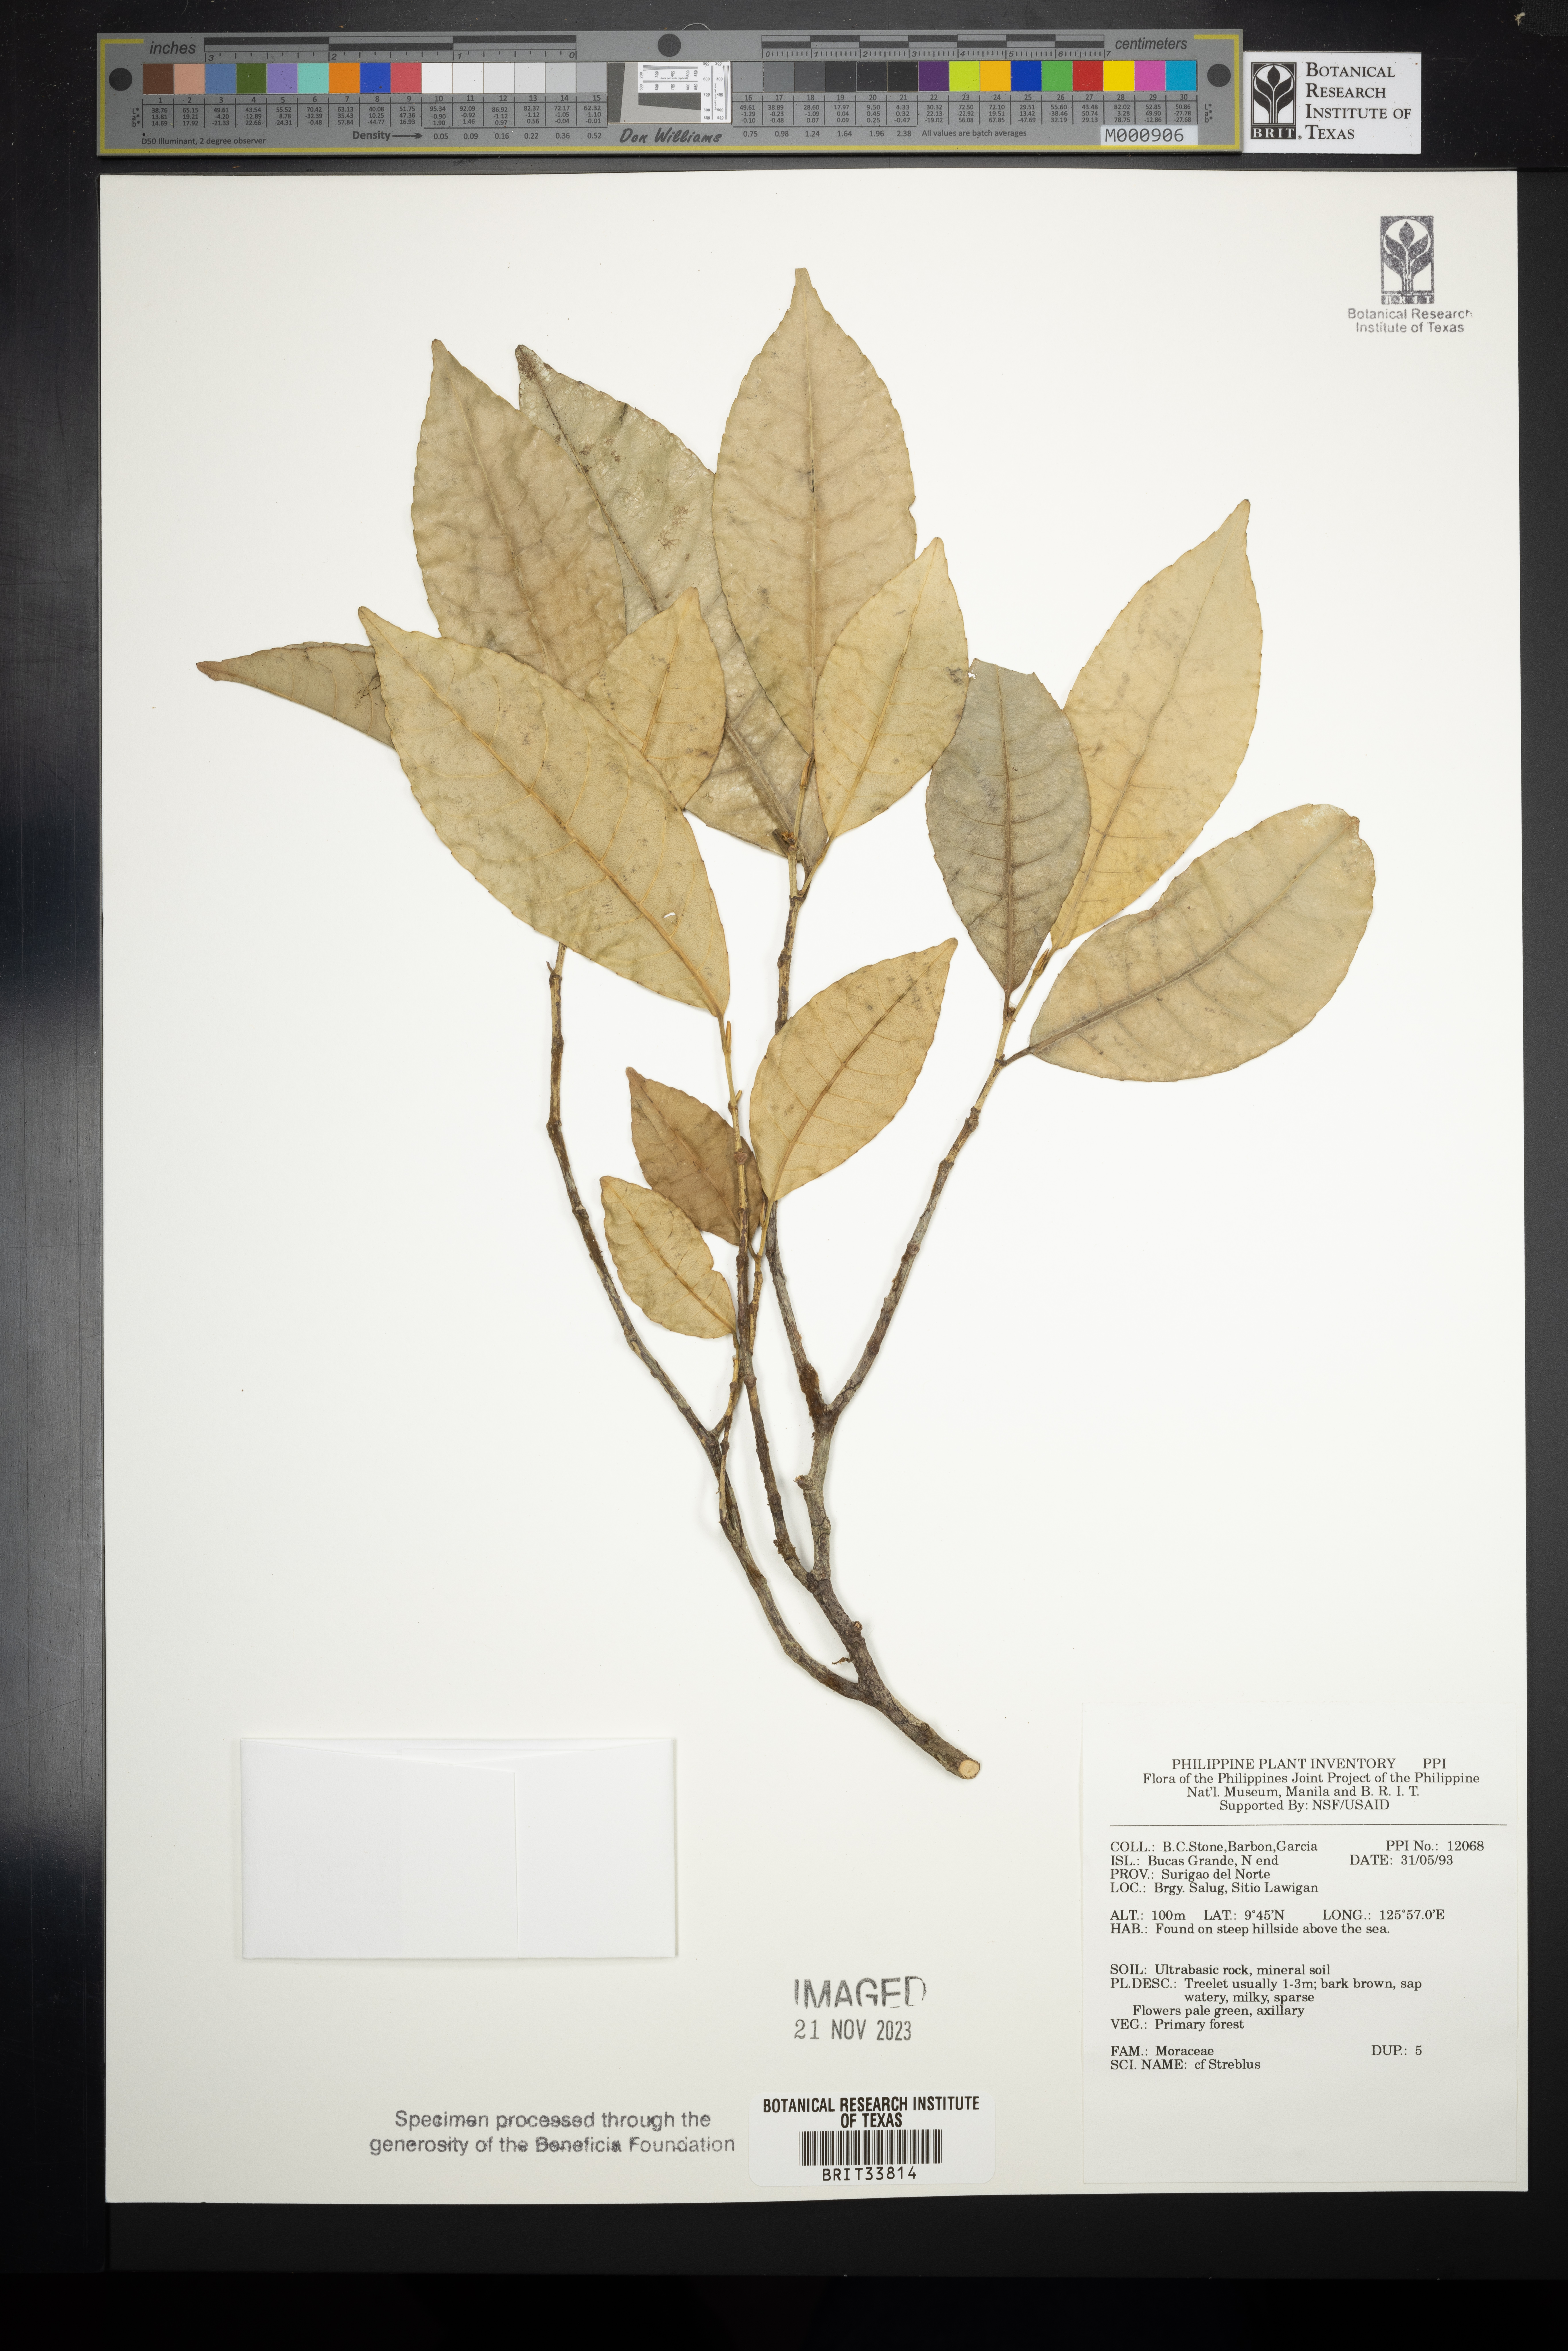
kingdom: Plantae
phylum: Tracheophyta
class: Magnoliopsida
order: Rosales
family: Moraceae
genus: Streblus
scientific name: Streblus
